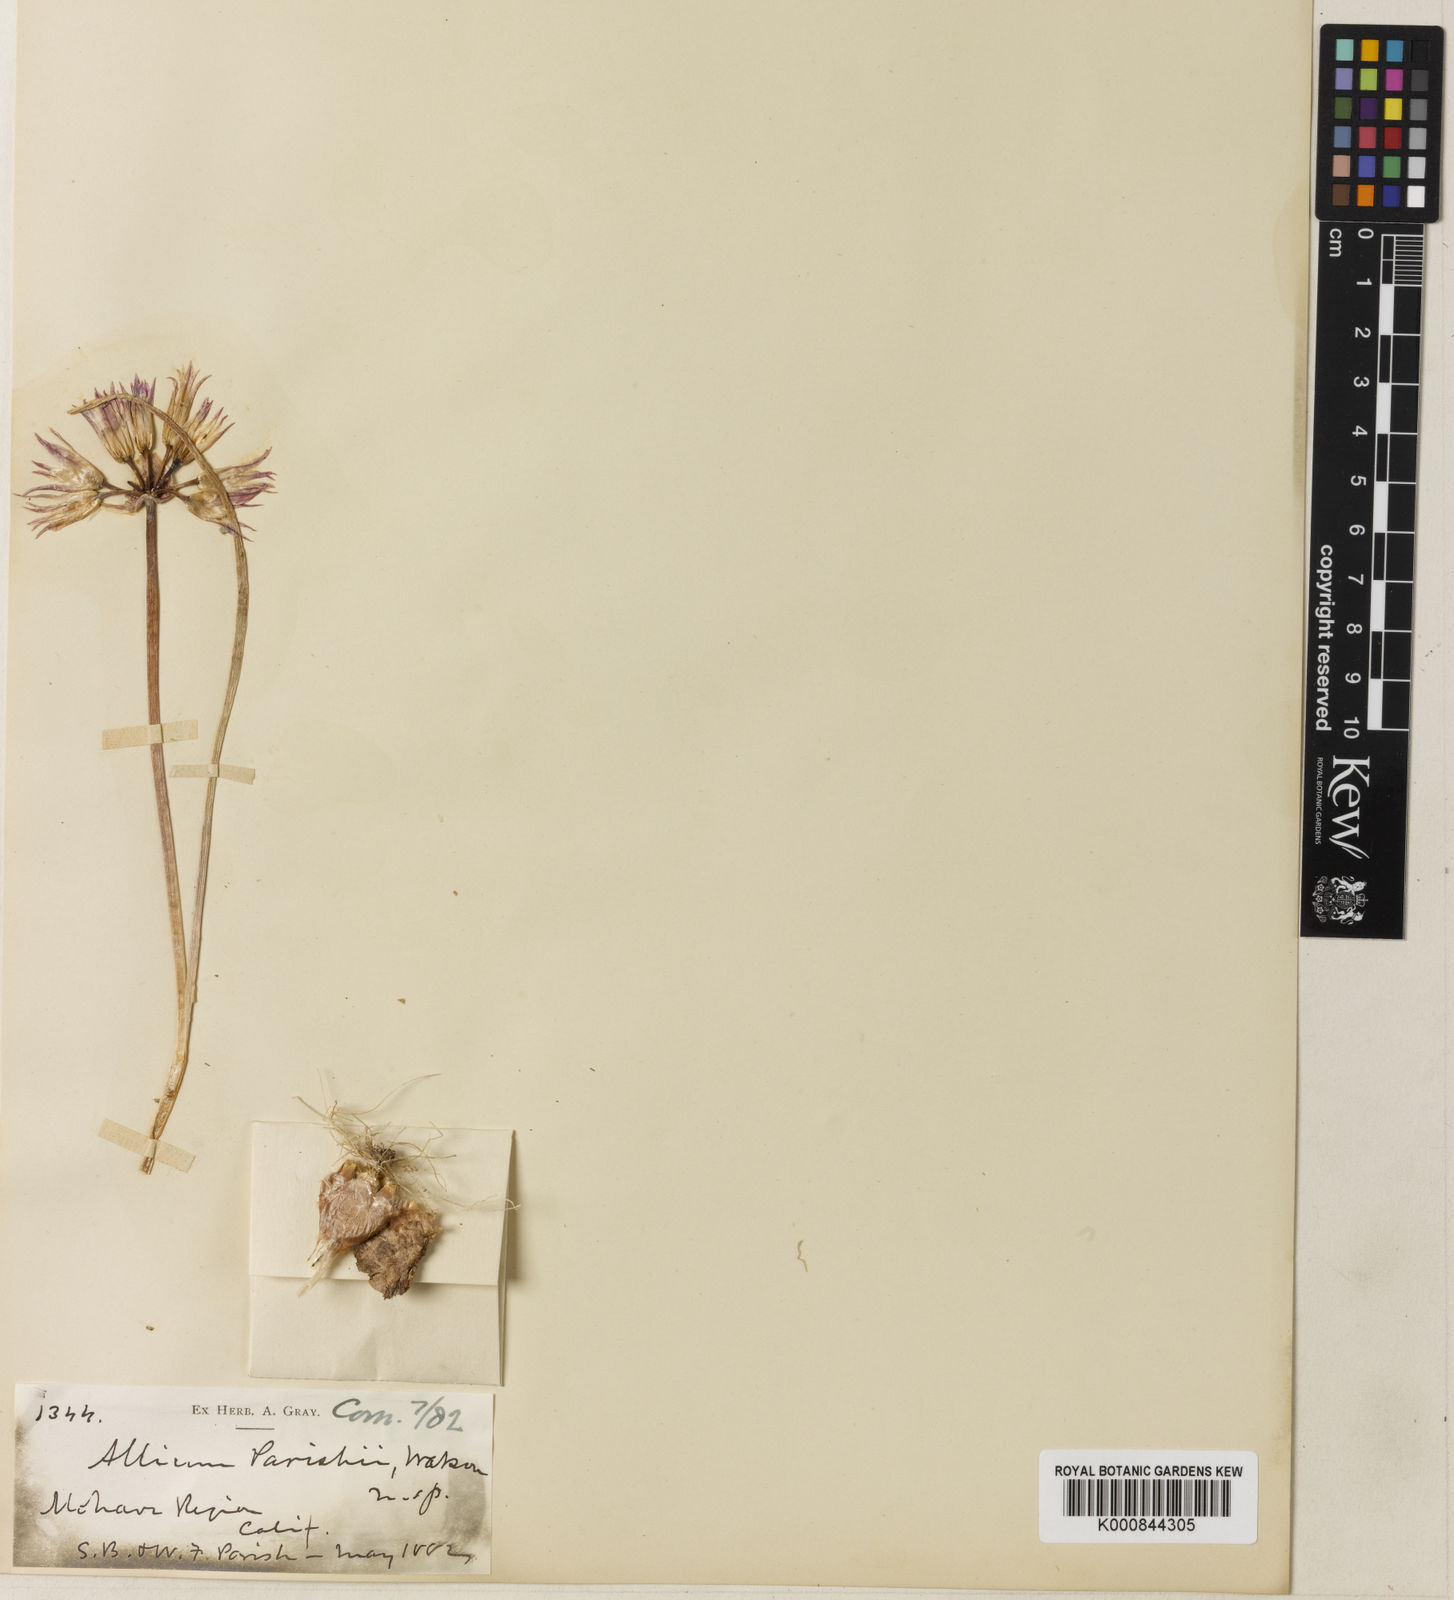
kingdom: Plantae
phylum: Tracheophyta
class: Liliopsida
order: Asparagales
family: Amaryllidaceae
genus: Allium
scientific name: Allium parishii
